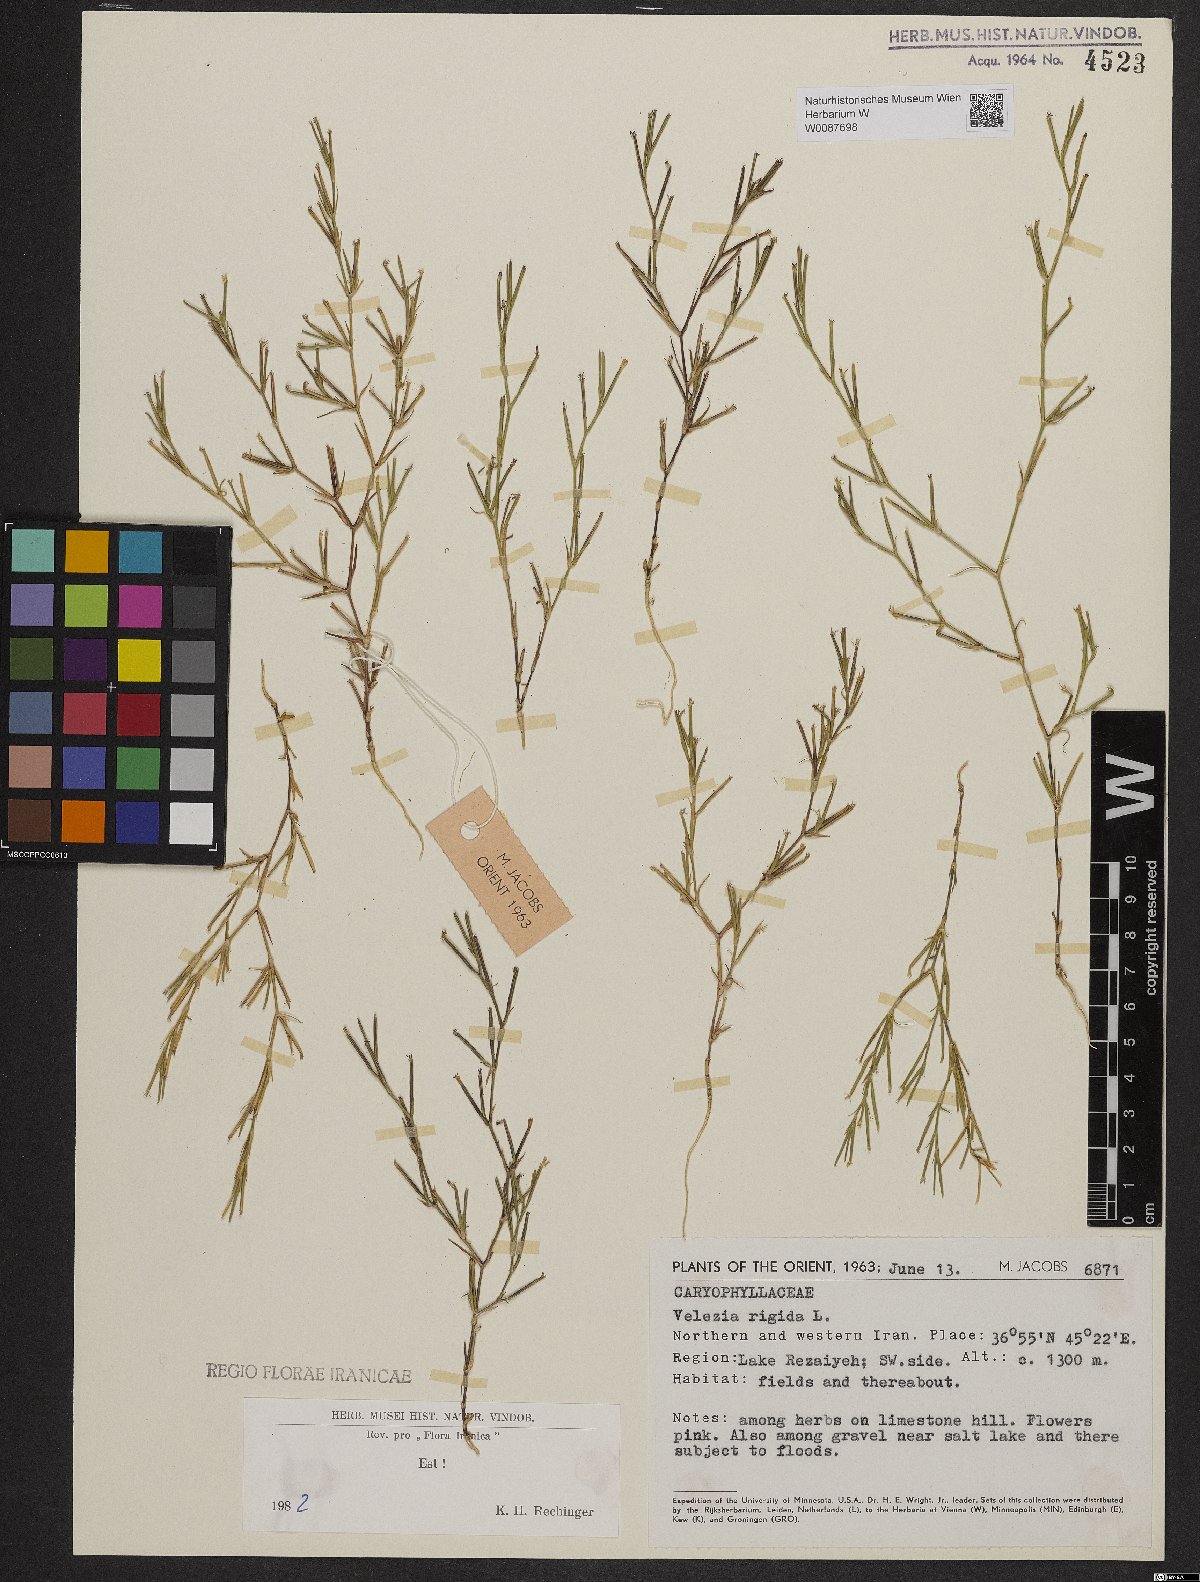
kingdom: Plantae
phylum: Tracheophyta
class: Magnoliopsida
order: Caryophyllales
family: Caryophyllaceae
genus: Dianthus
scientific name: Dianthus nudiflorus
